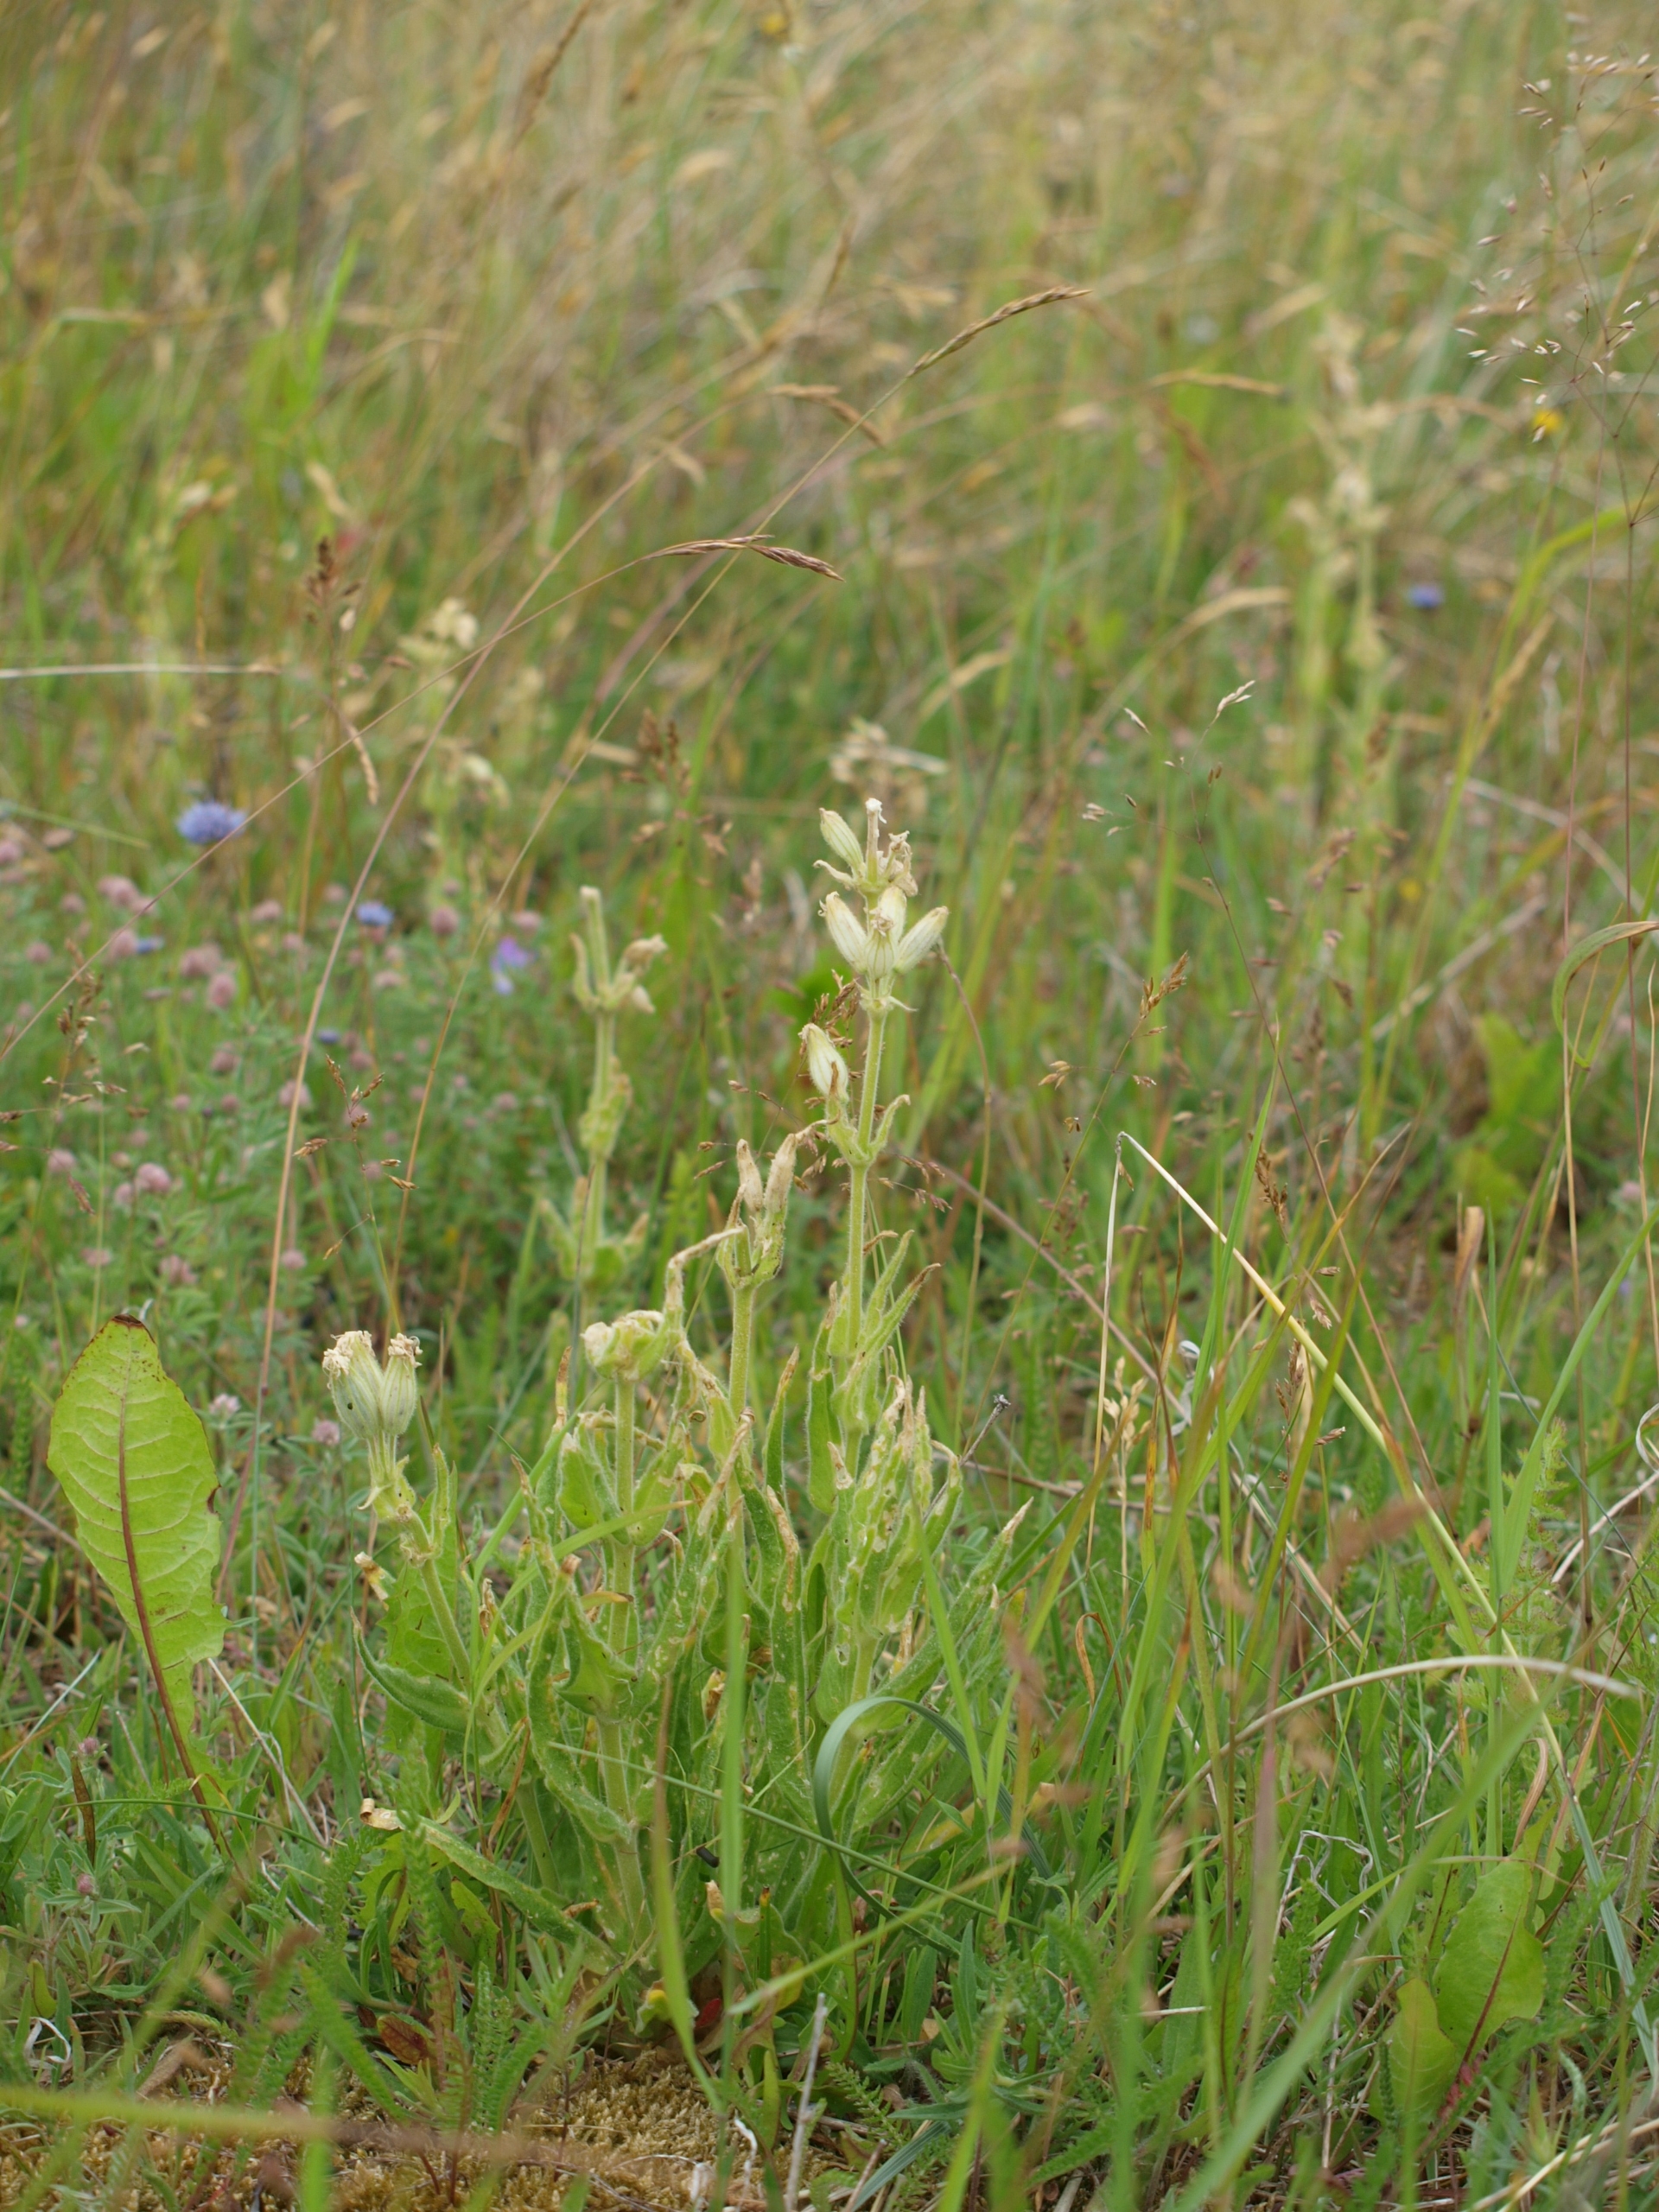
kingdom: Plantae
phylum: Tracheophyta
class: Magnoliopsida
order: Caryophyllales
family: Caryophyllaceae
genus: Silene
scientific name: Silene viscosa
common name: Klæbrig limurt
